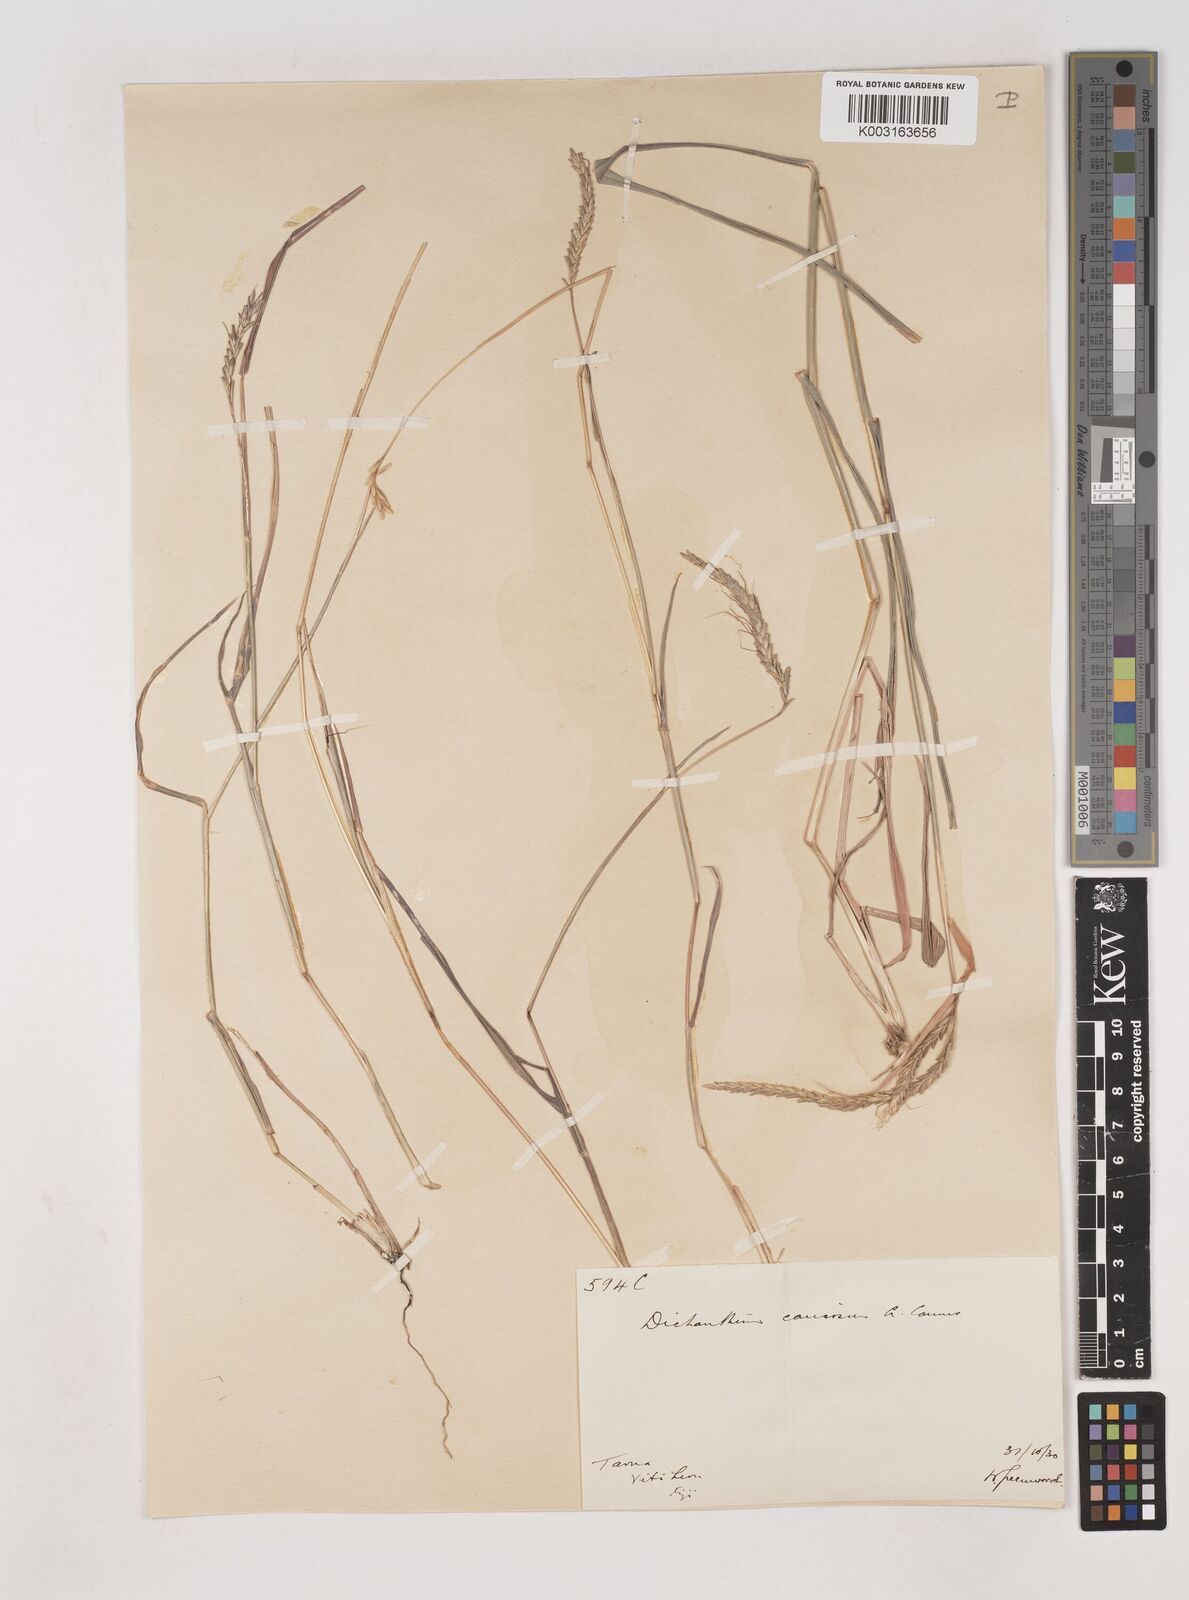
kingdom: Plantae
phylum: Tracheophyta
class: Liliopsida
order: Poales
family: Poaceae
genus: Dichanthium
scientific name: Dichanthium caricosum
